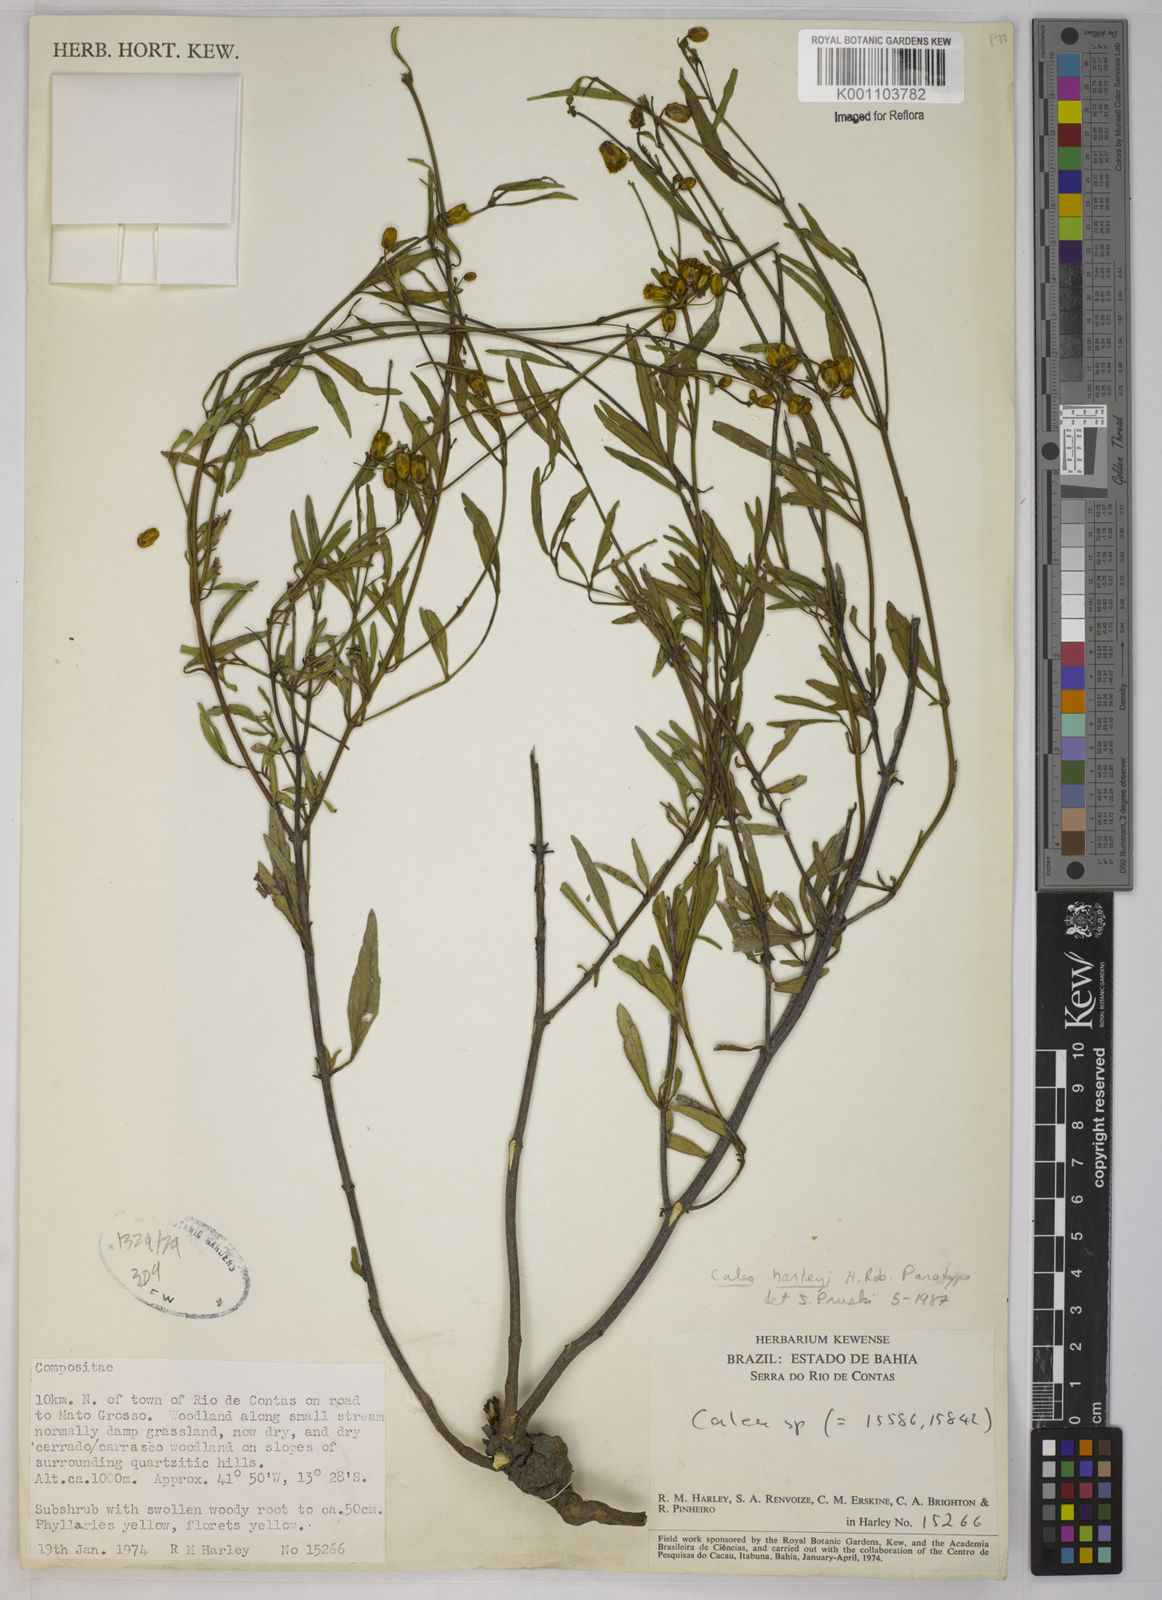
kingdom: Plantae
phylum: Tracheophyta
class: Magnoliopsida
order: Asterales
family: Asteraceae
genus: Calea
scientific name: Calea harleyi
